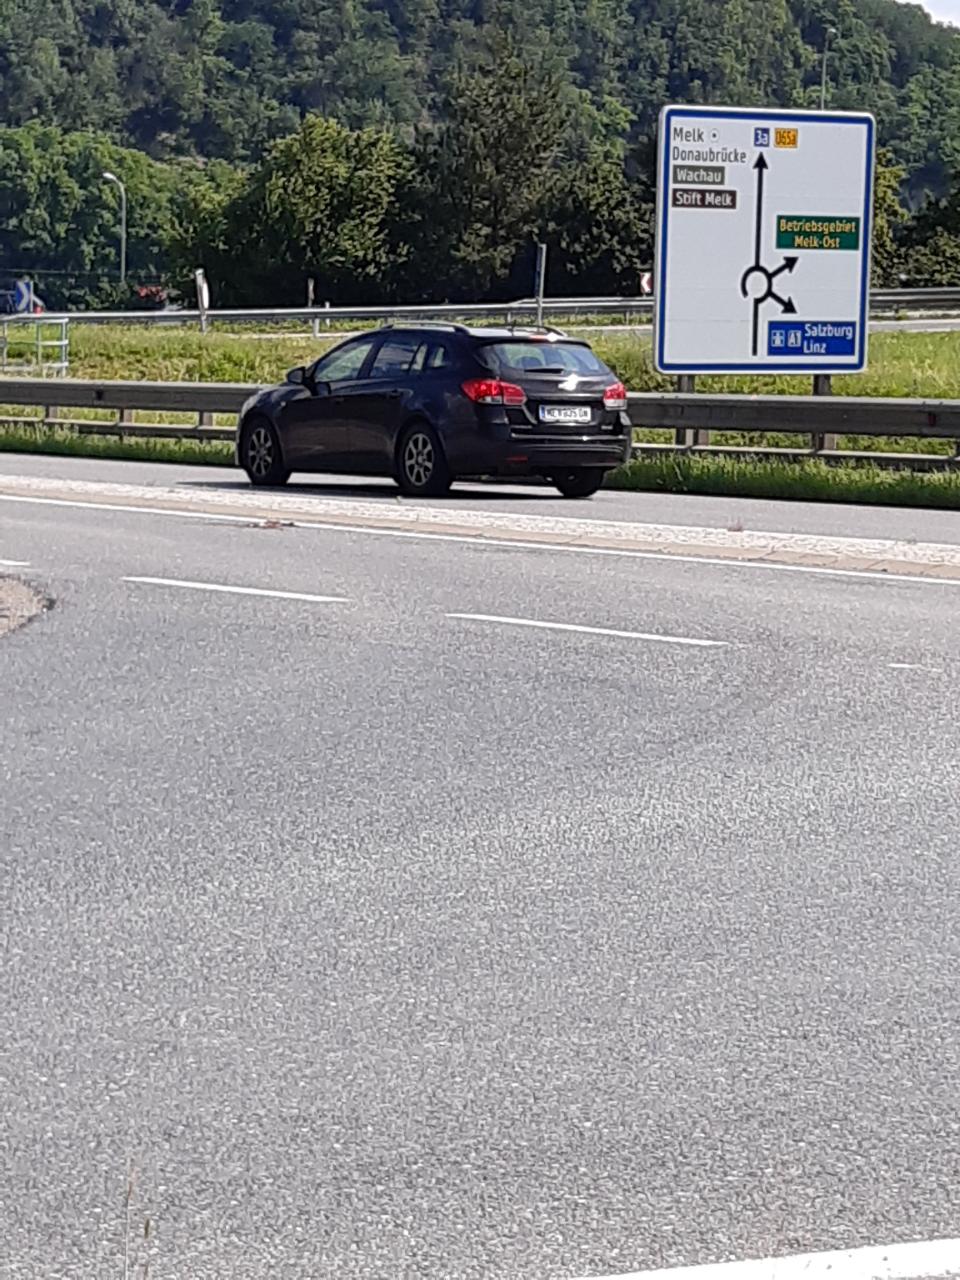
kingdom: Animalia
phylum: Chordata
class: Mammalia
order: Erinaceomorpha
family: Erinaceidae
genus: Erinaceus
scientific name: Erinaceus
